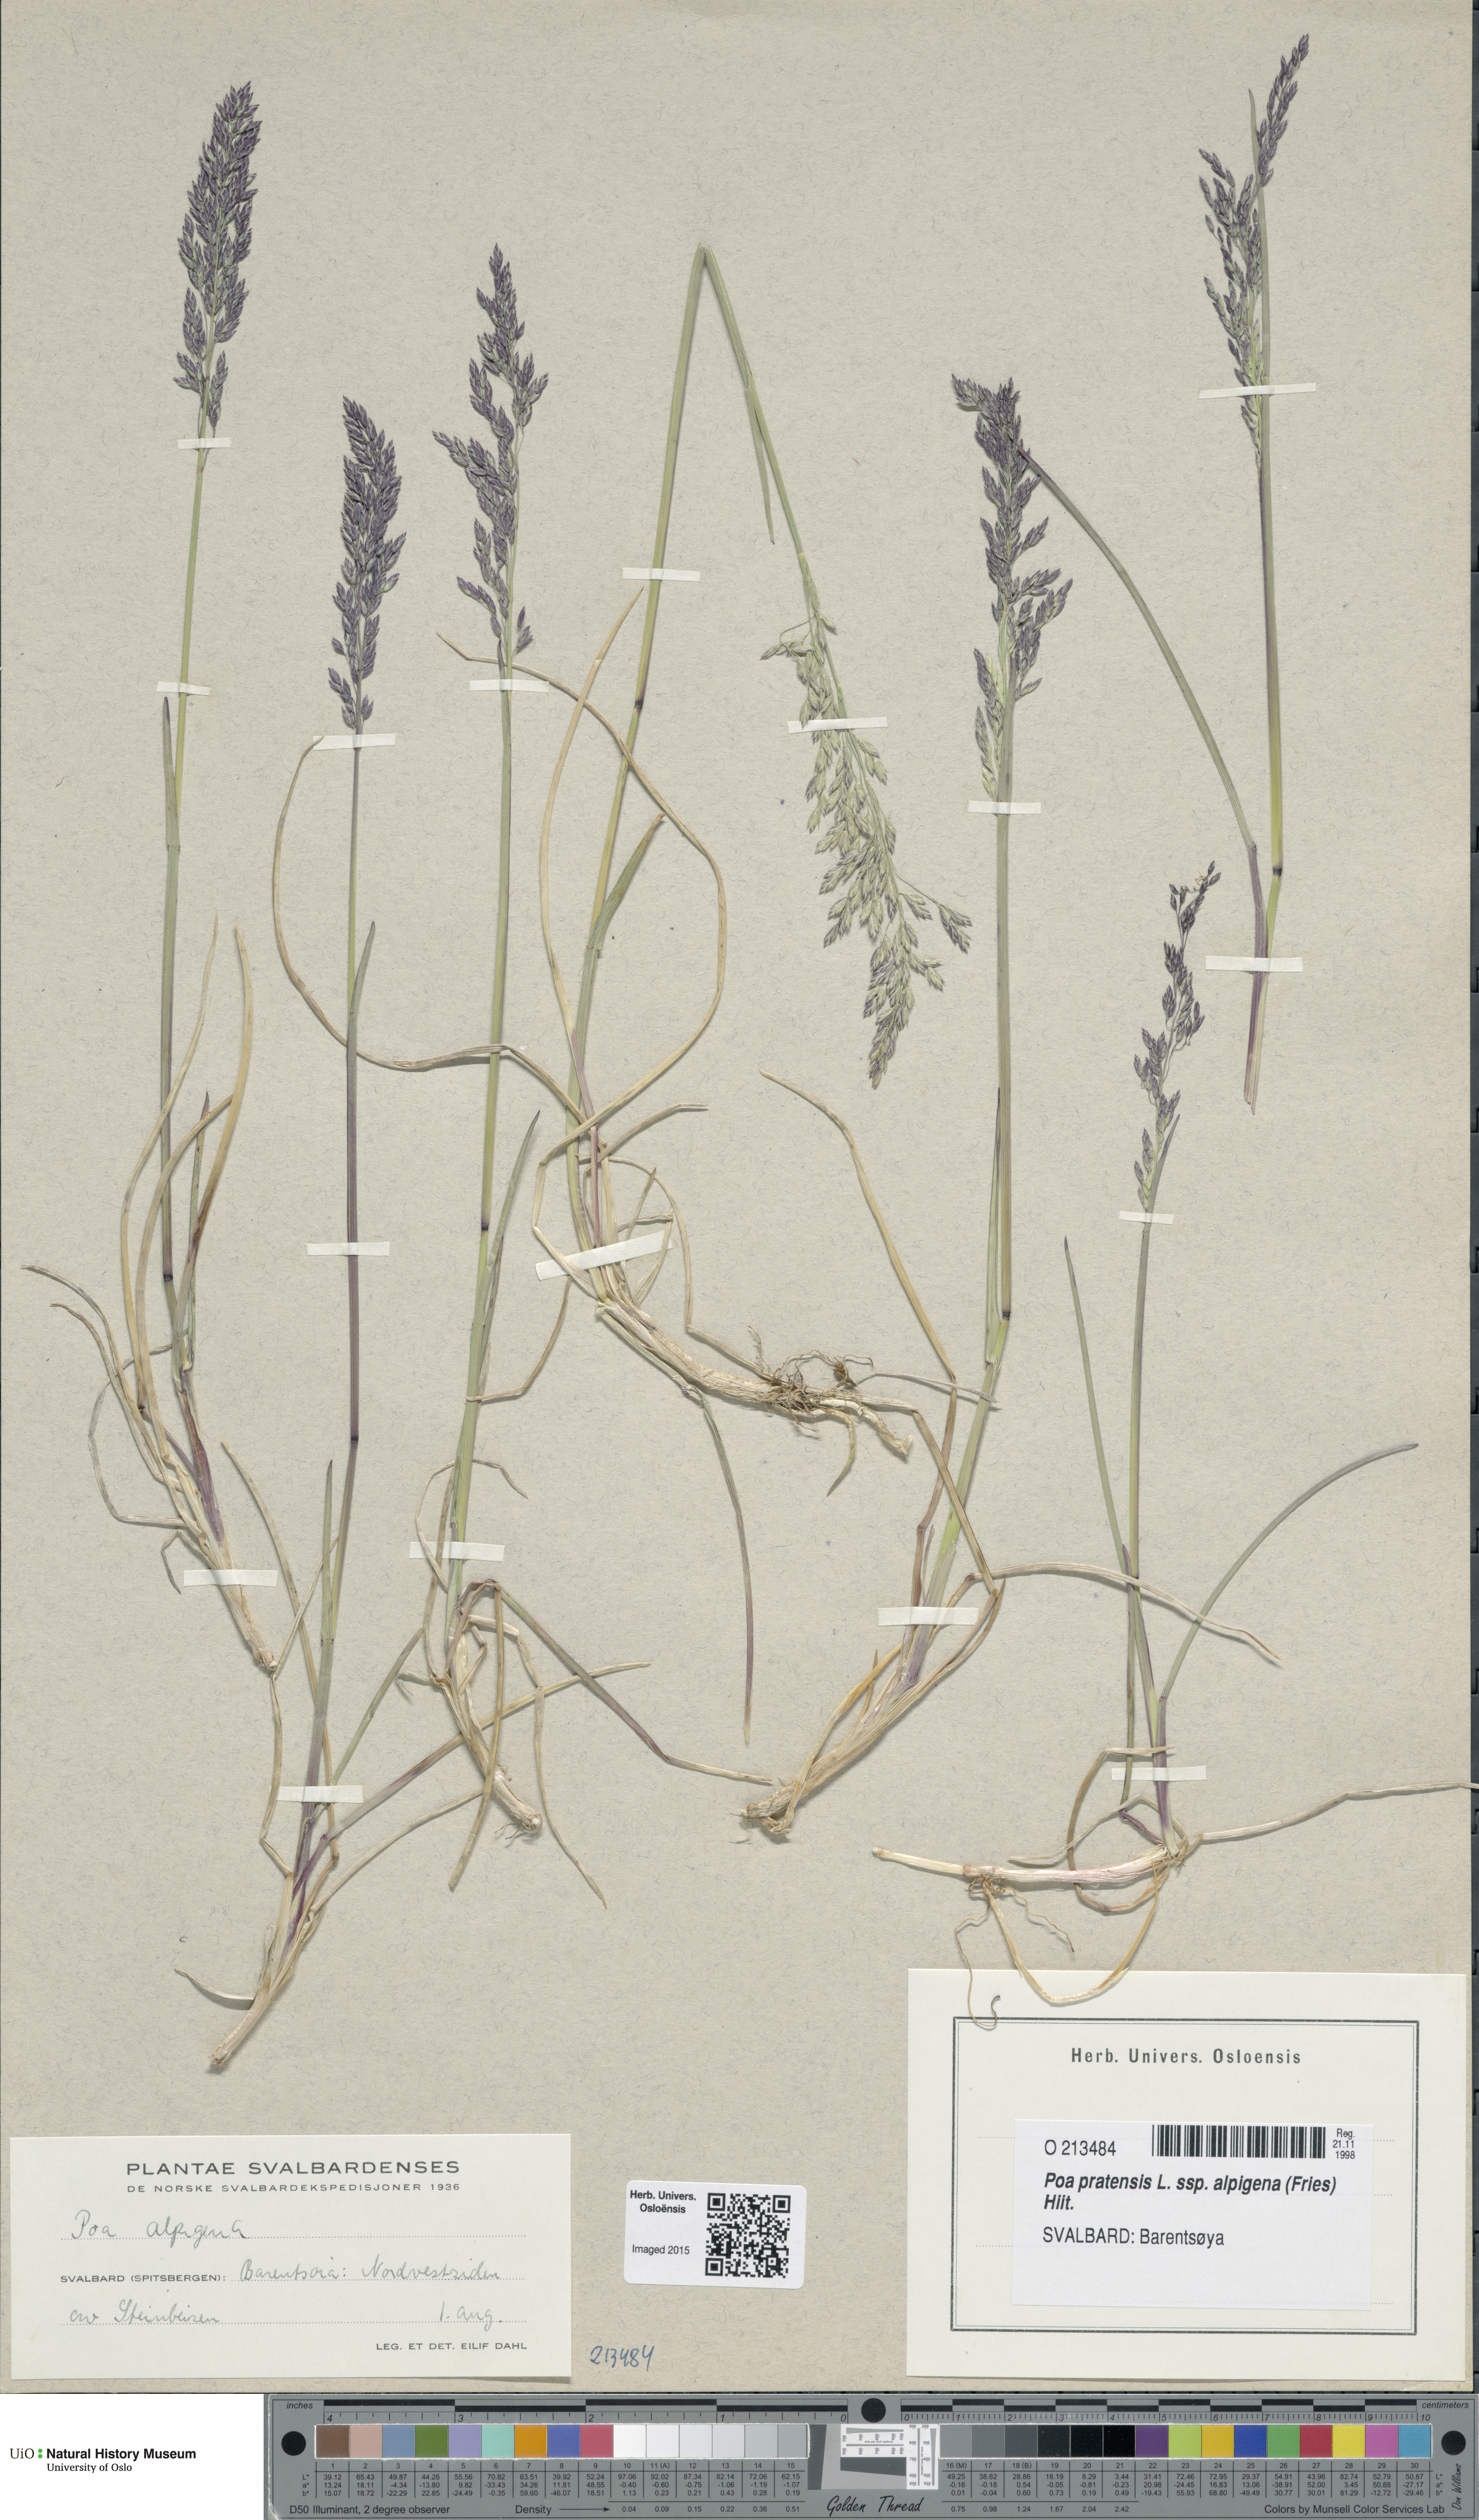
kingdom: Plantae
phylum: Tracheophyta
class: Liliopsida
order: Poales
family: Poaceae
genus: Poa
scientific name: Poa alpigena
